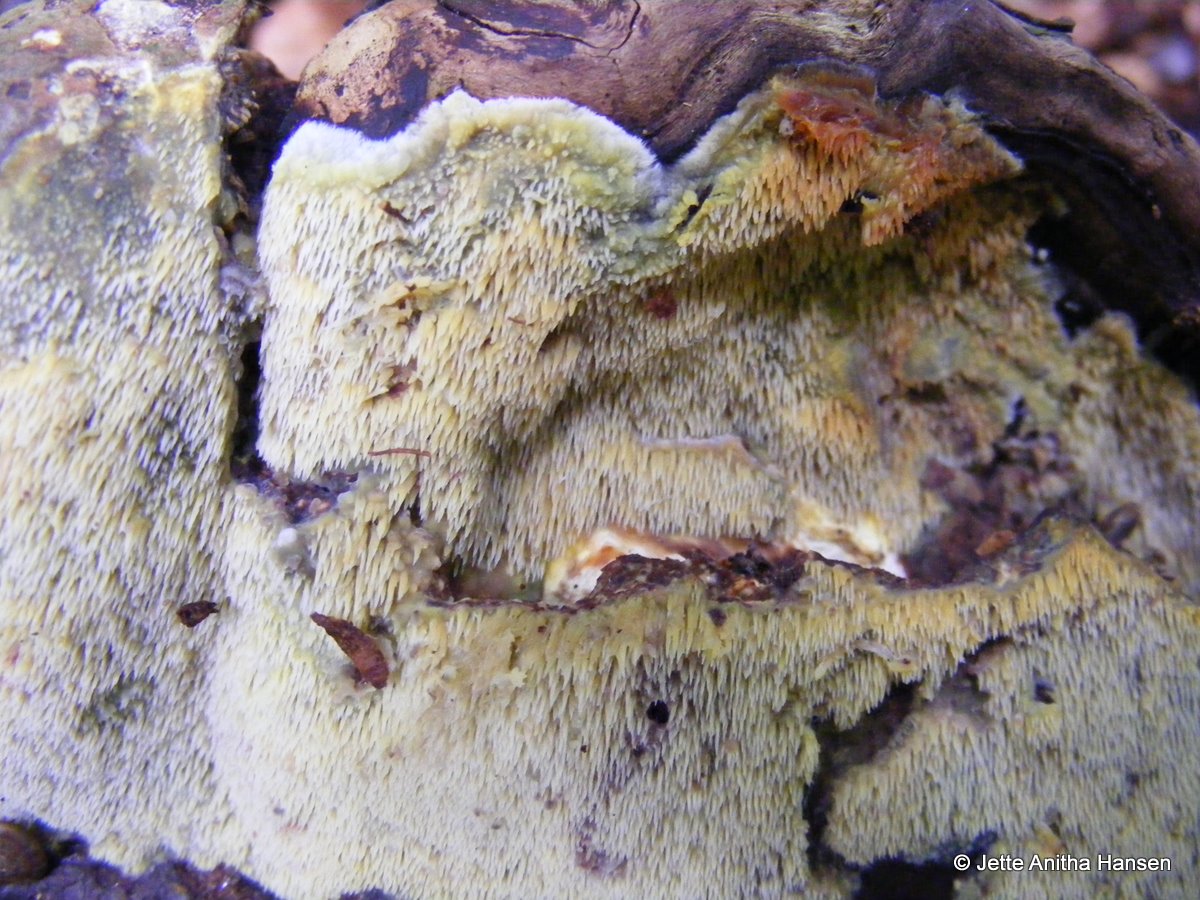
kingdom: Fungi
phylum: Basidiomycota
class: Agaricomycetes
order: Polyporales
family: Meruliaceae
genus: Mycoacia
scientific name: Mycoacia uda
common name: citrongul vokspig
